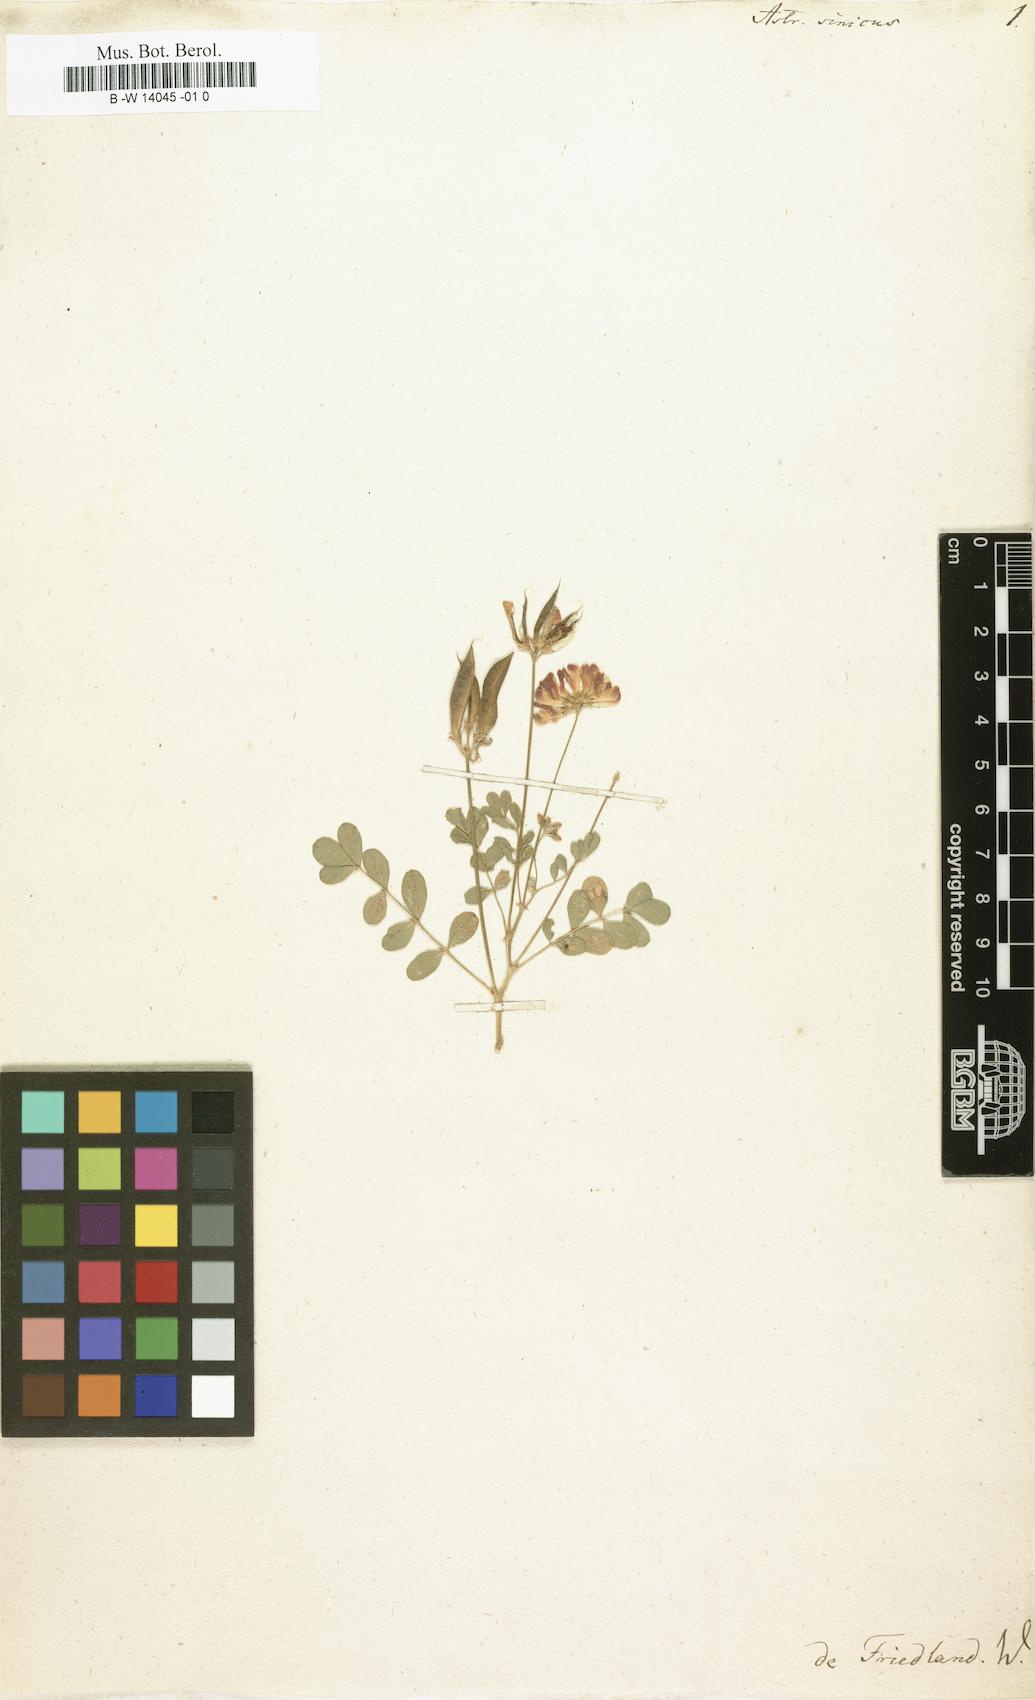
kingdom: Plantae
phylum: Tracheophyta
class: Magnoliopsida
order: Fabales
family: Fabaceae
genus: Astragalus
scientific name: Astragalus sinicus
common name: Chinese milk-vetch
